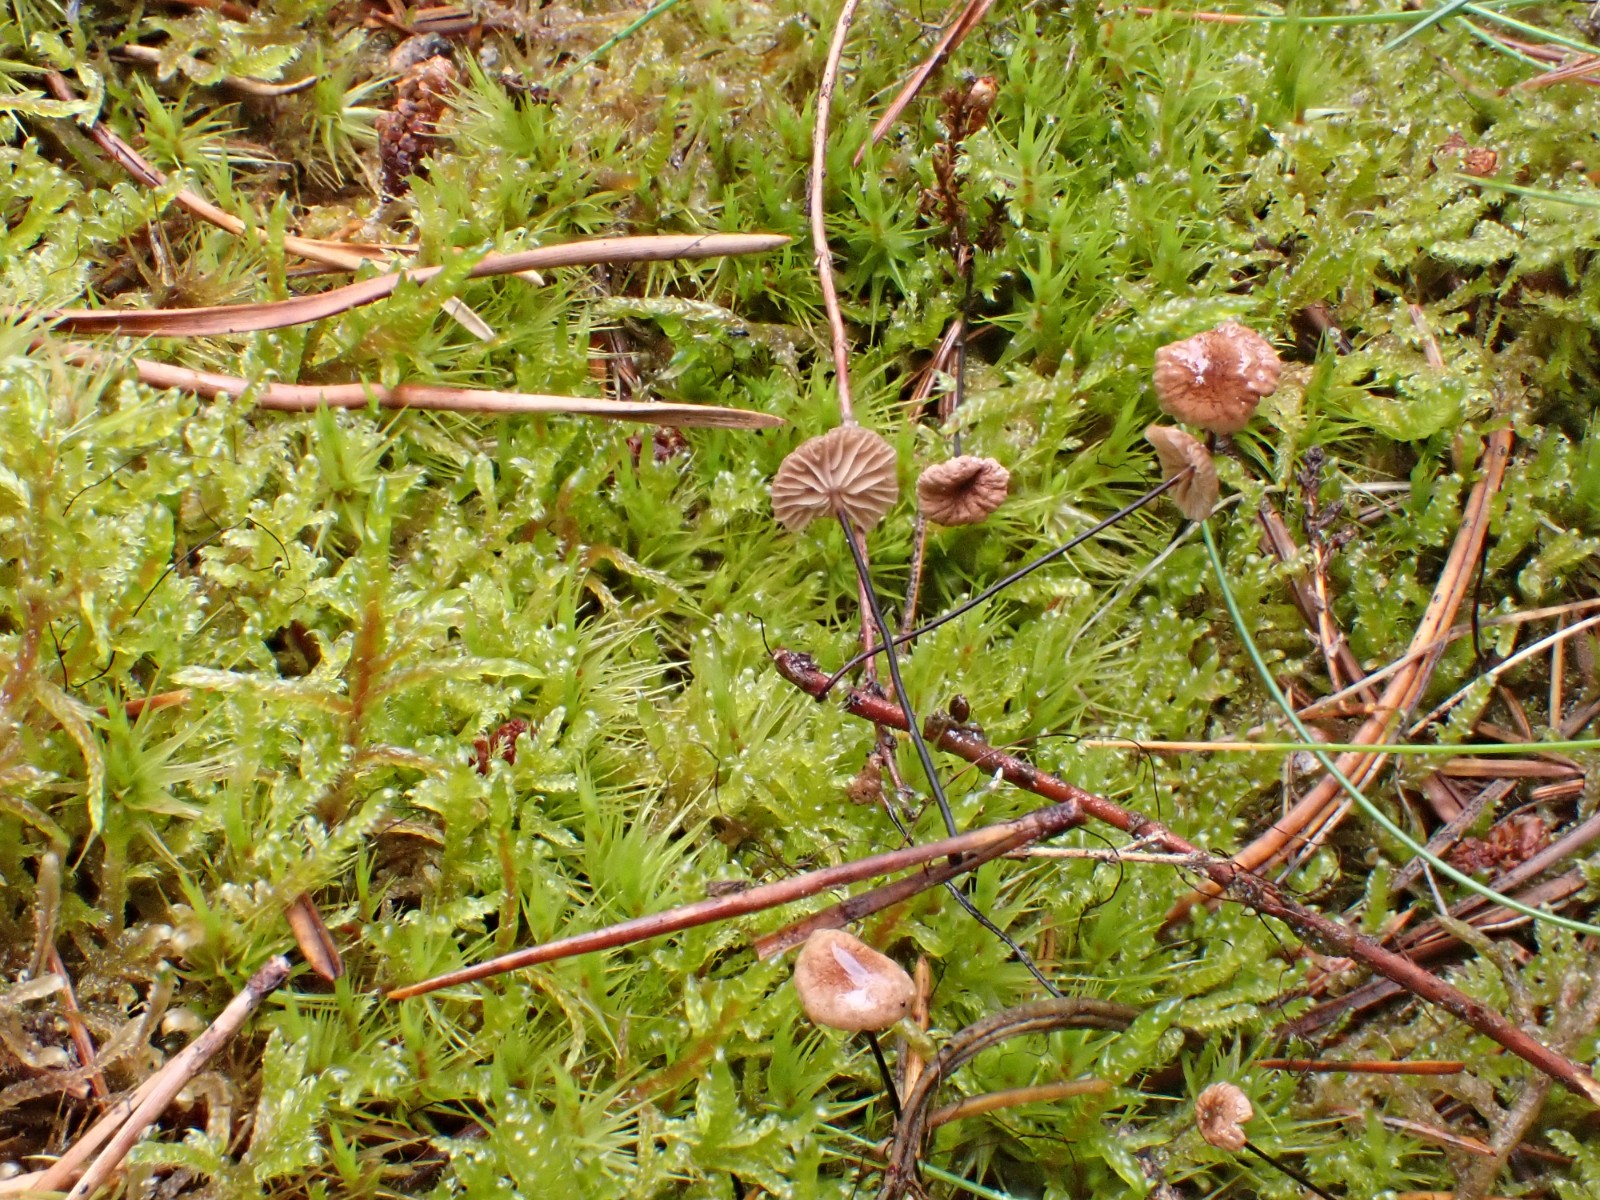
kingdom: Fungi
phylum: Basidiomycota
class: Agaricomycetes
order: Agaricales
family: Omphalotaceae
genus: Gymnopus
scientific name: Gymnopus androsaceus
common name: trådstokket fladhat
